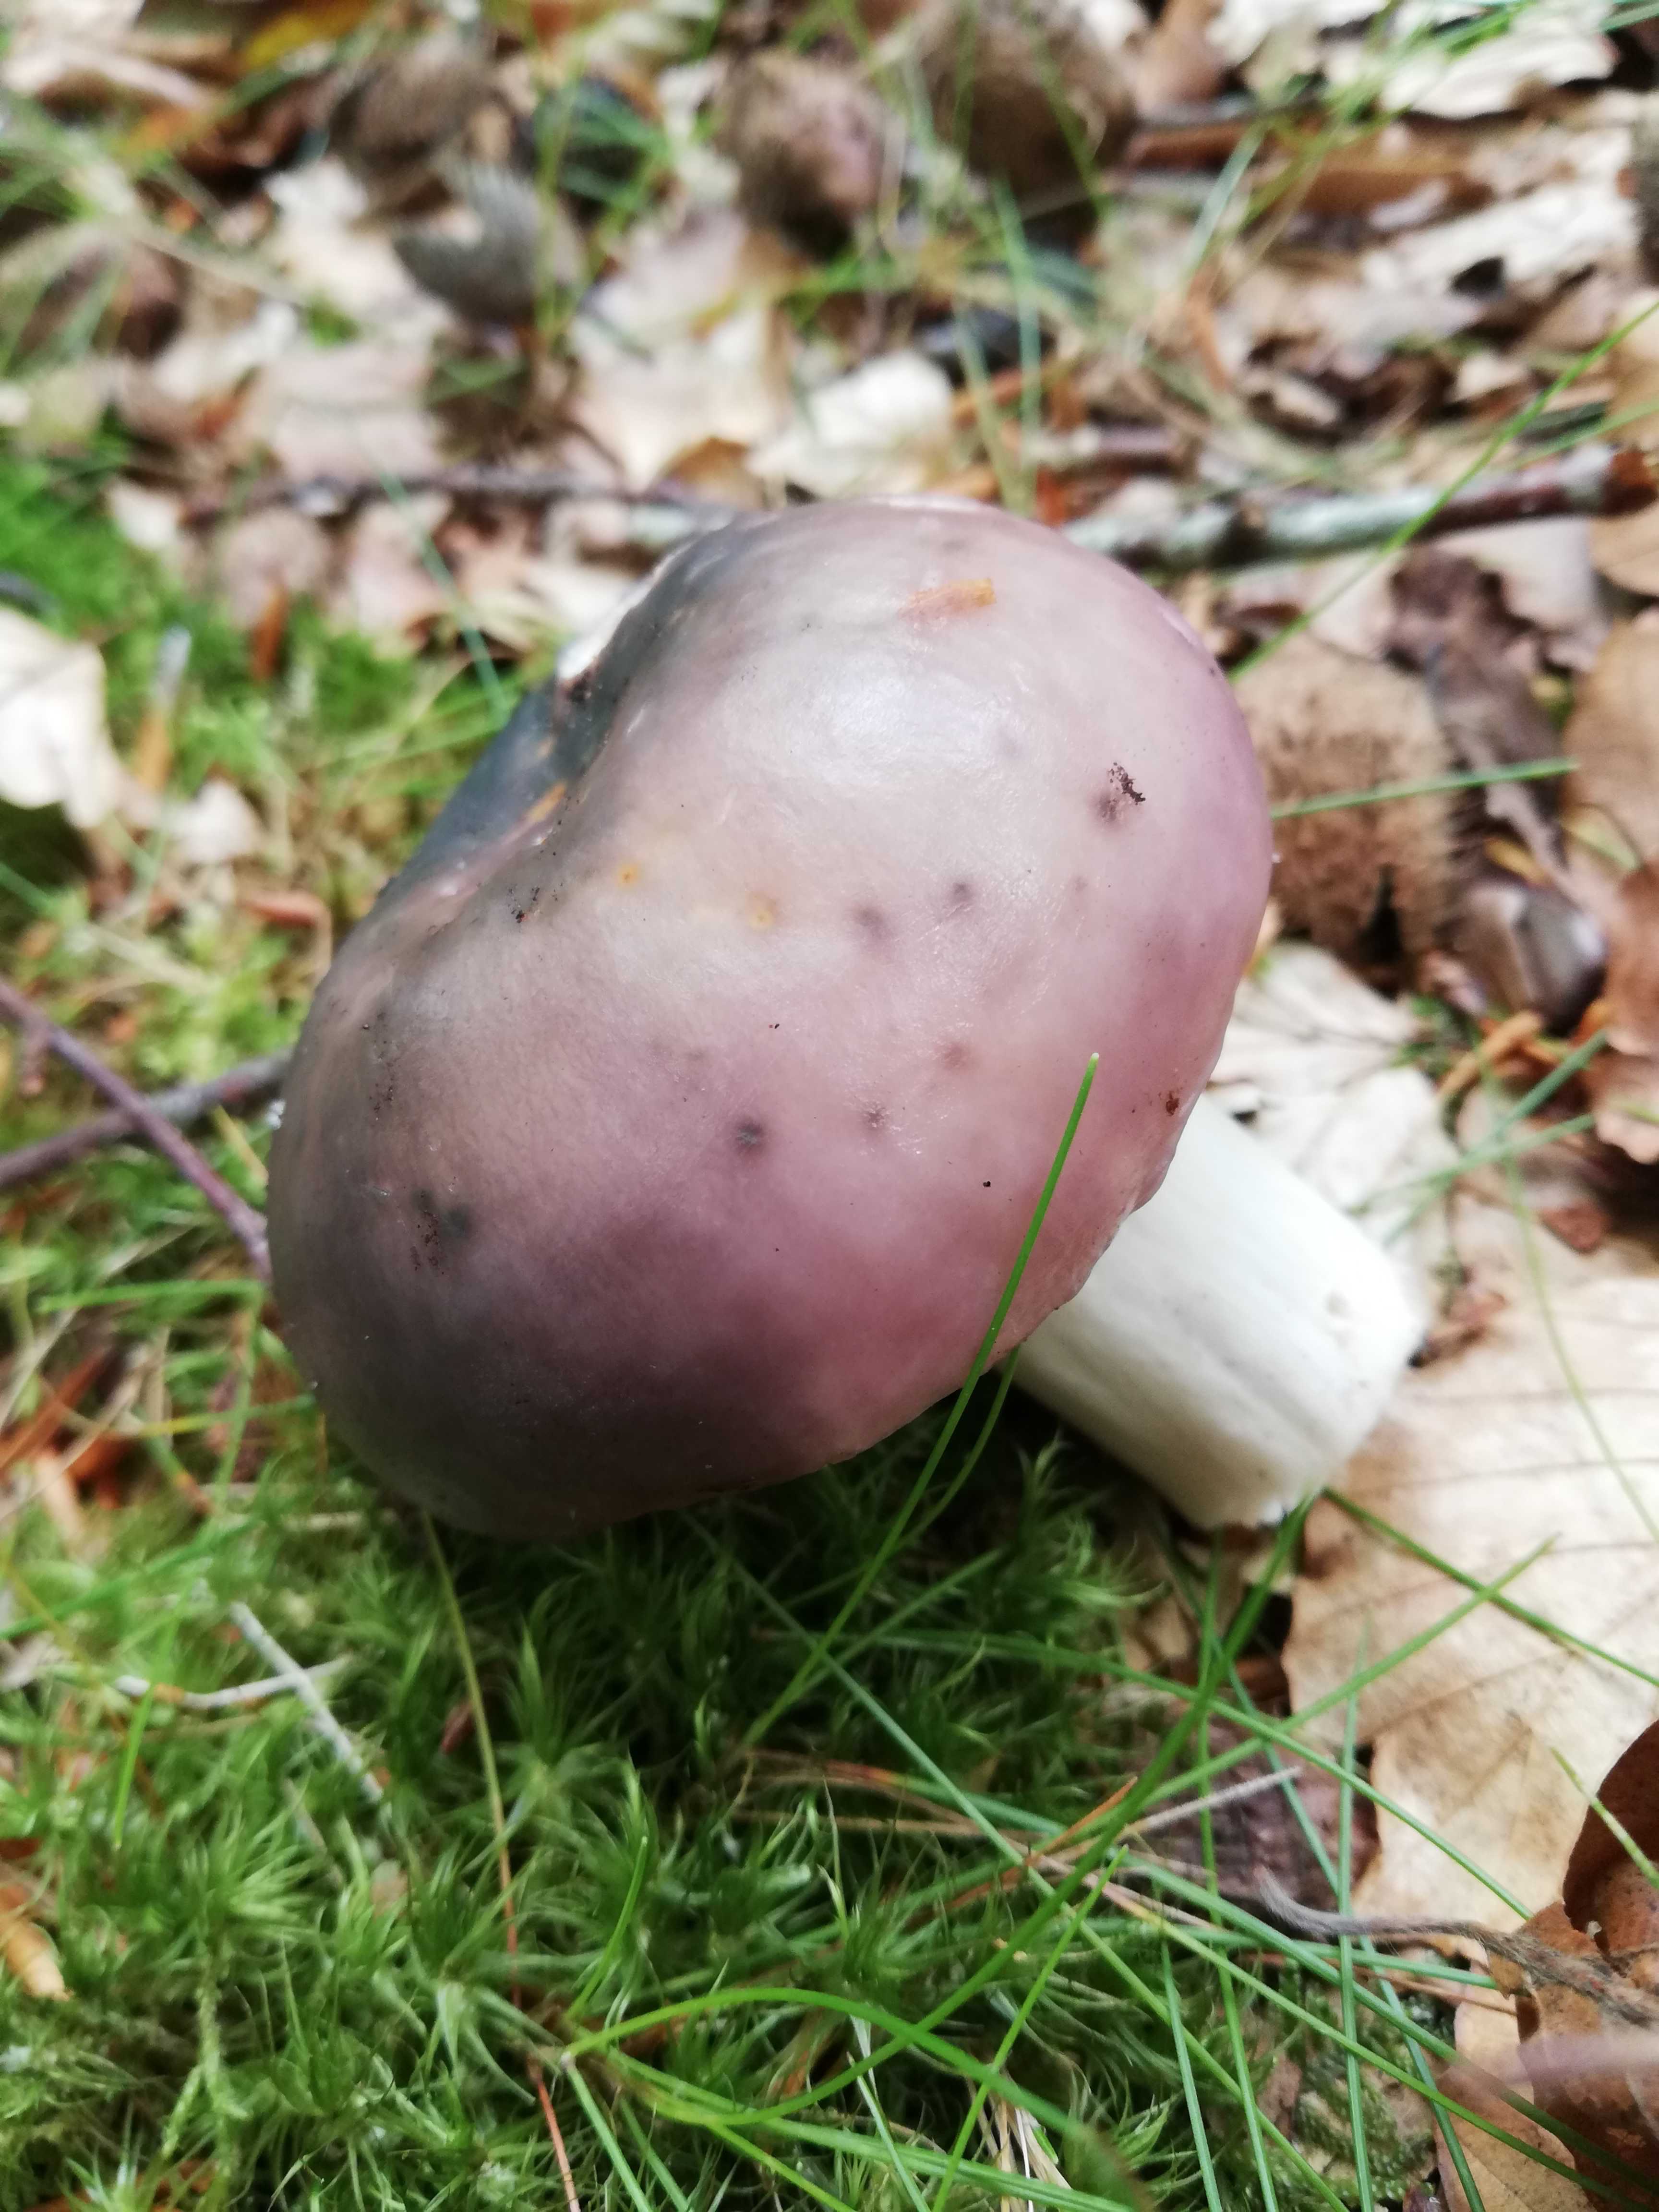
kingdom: Fungi
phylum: Basidiomycota
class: Agaricomycetes
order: Russulales
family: Russulaceae
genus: Russula
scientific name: Russula
